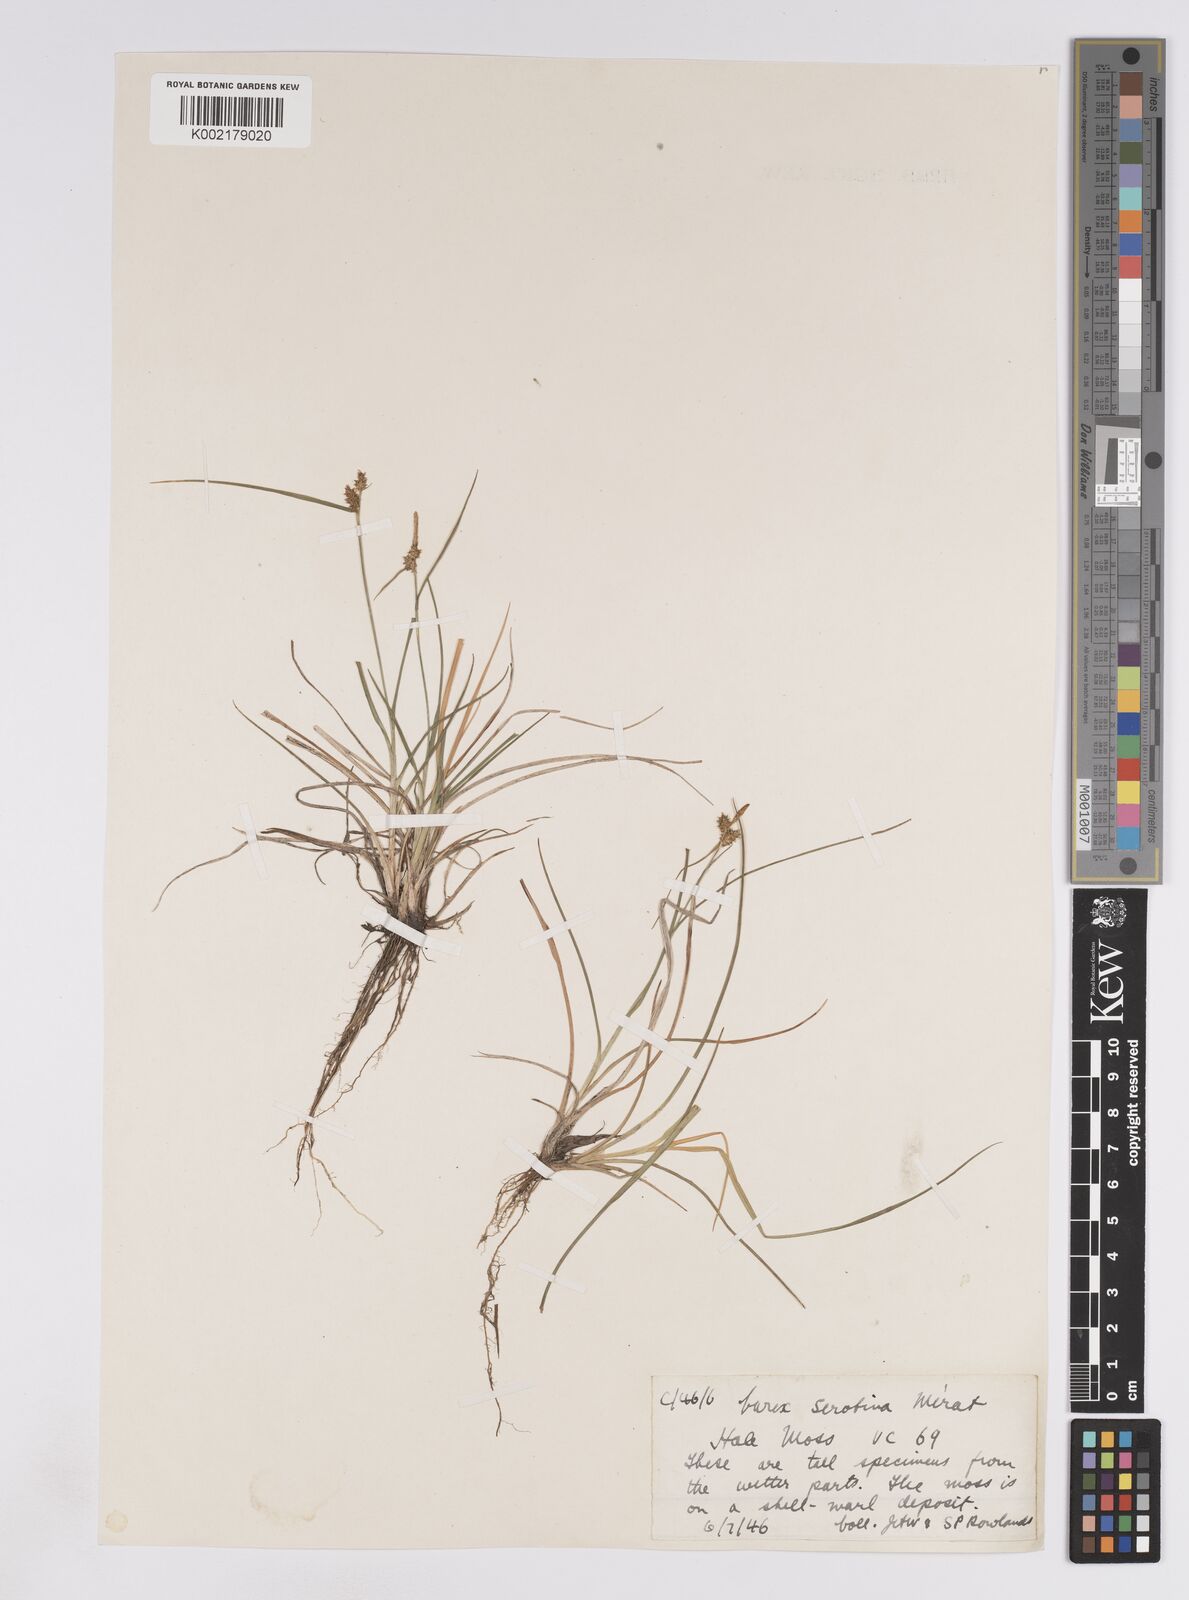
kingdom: Plantae
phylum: Tracheophyta
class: Liliopsida
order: Poales
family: Cyperaceae
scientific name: Cyperaceae
